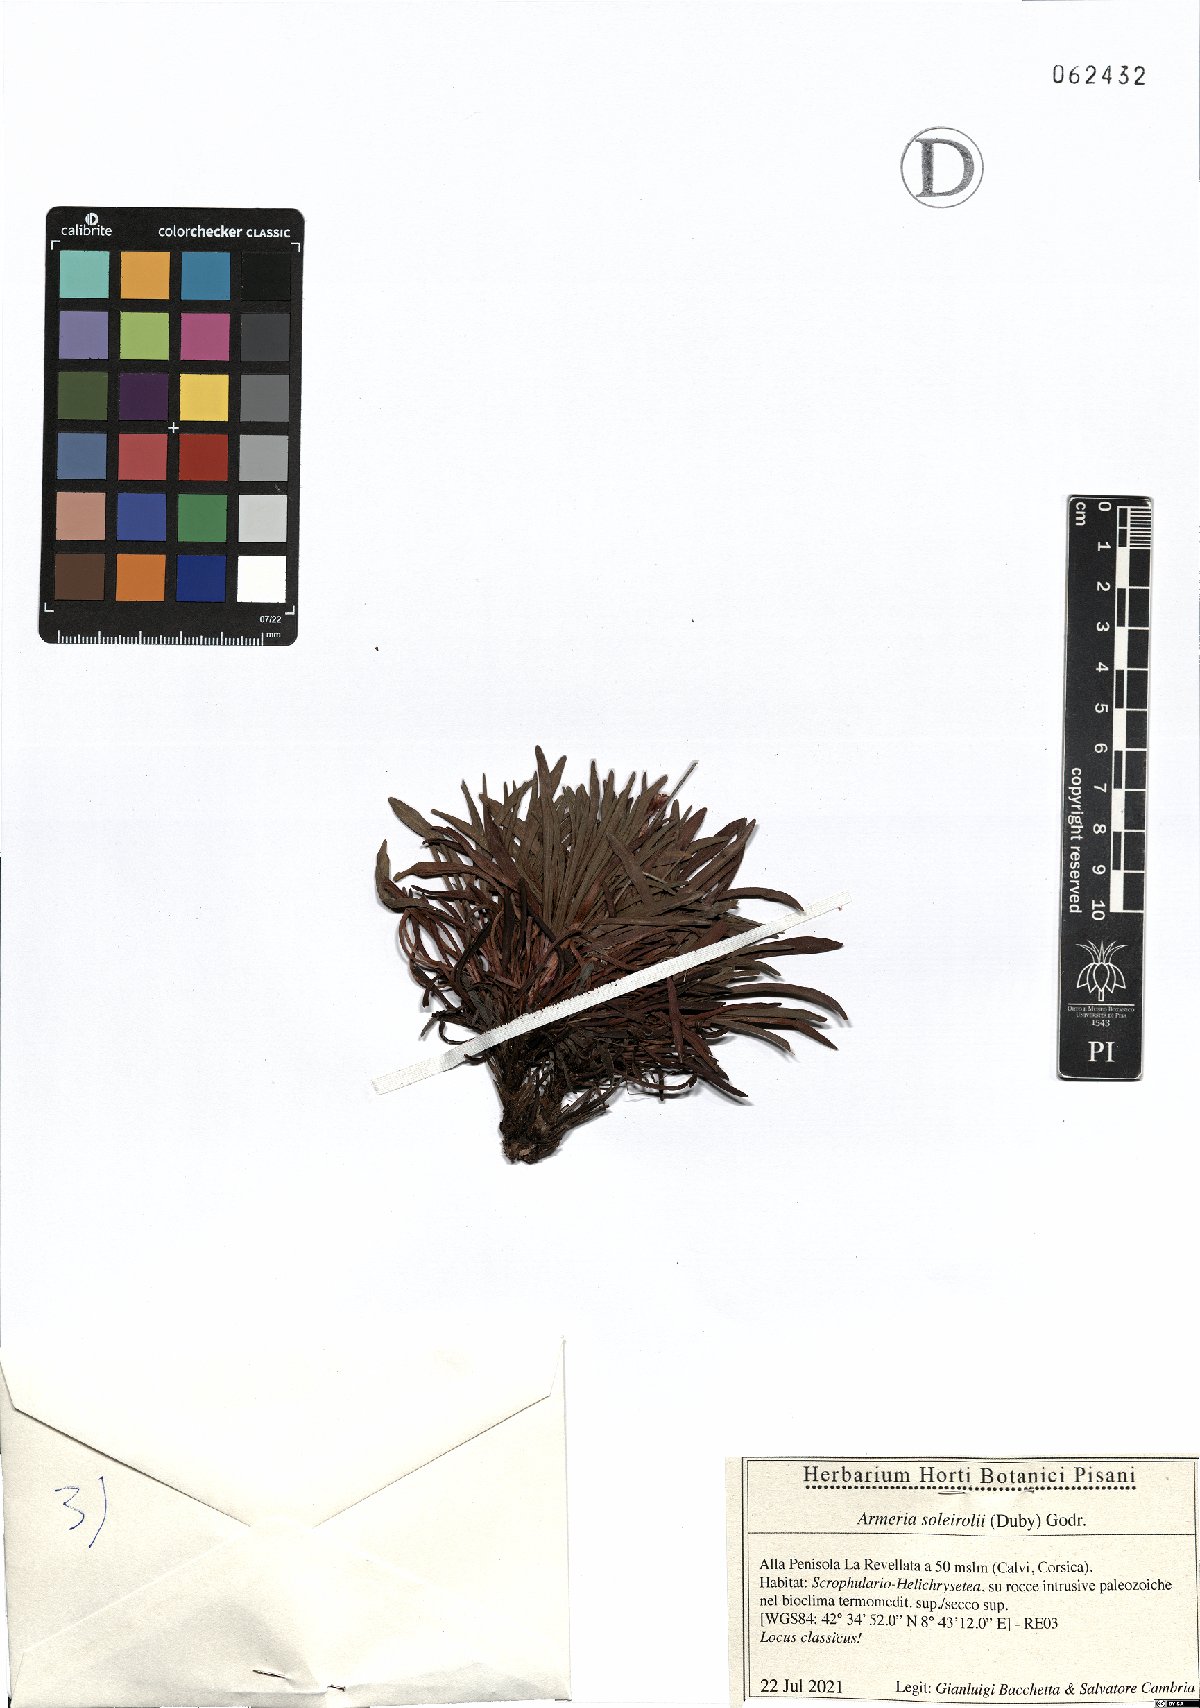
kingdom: Plantae
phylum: Tracheophyta
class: Magnoliopsida
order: Caryophyllales
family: Plumbaginaceae
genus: Armeria
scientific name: Armeria soleirolii
